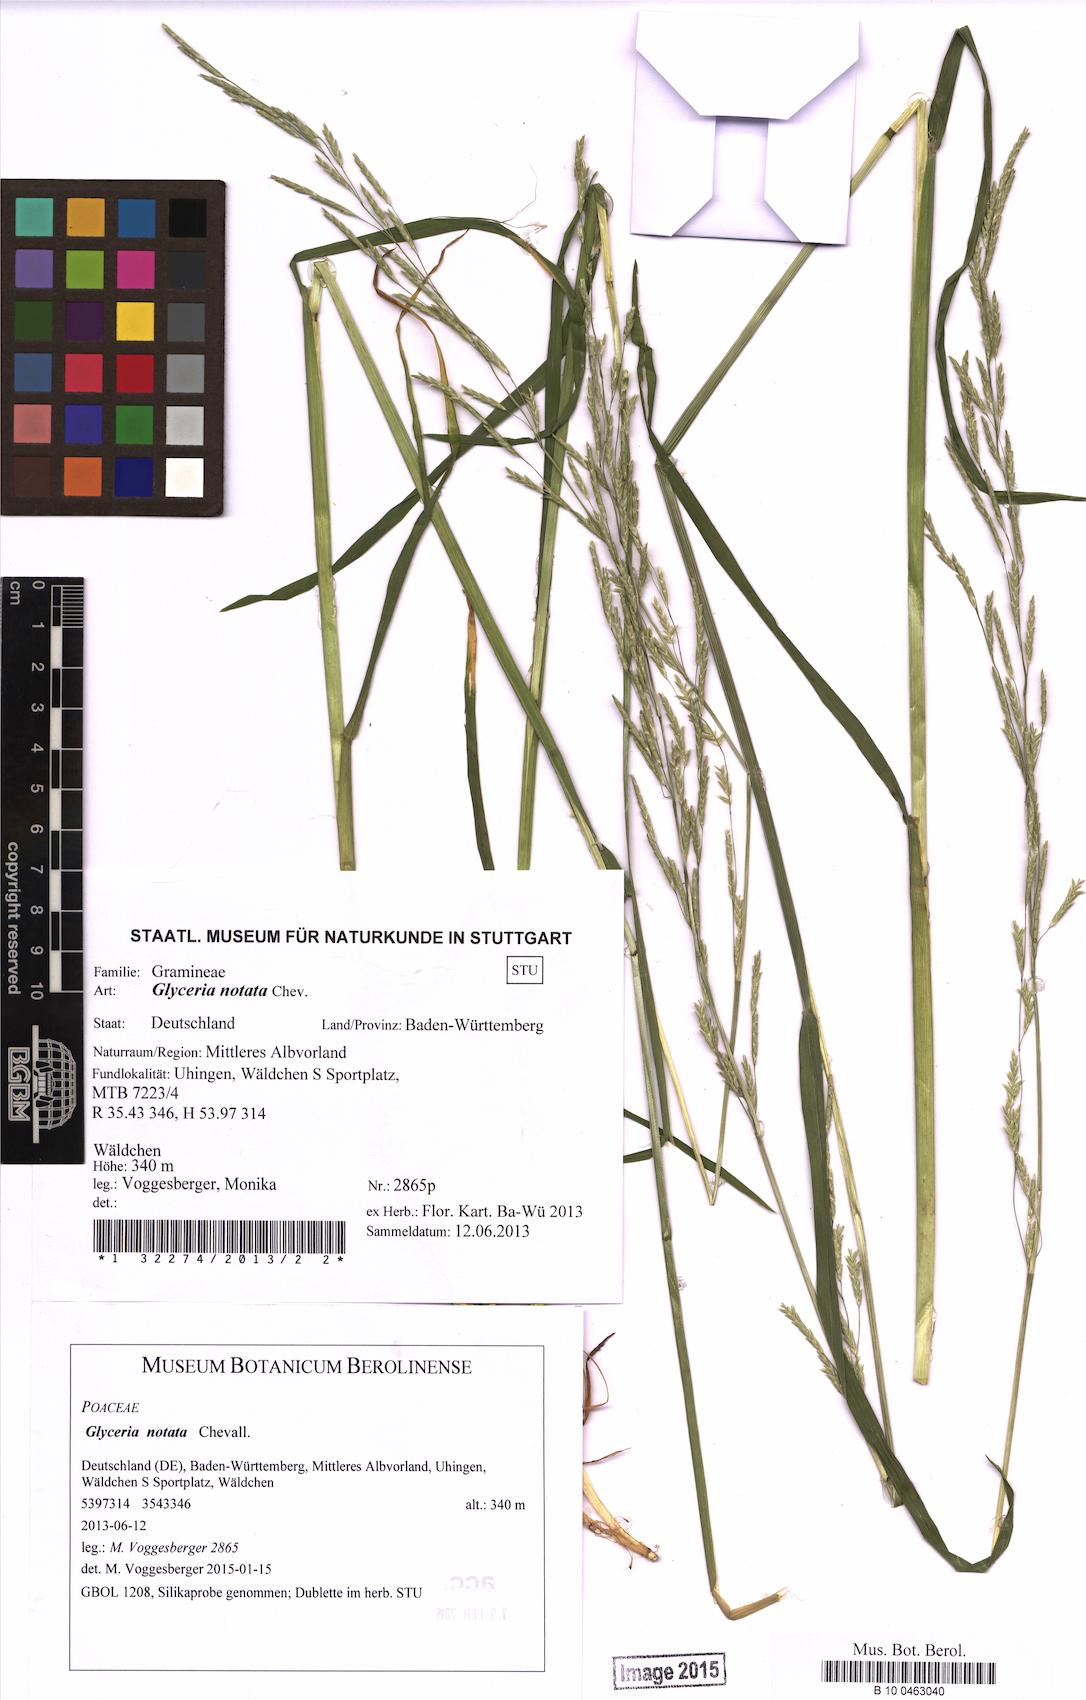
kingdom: Plantae
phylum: Tracheophyta
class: Liliopsida
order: Poales
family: Poaceae
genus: Glyceria
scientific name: Glyceria notata
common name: Plicate sweet-grass
